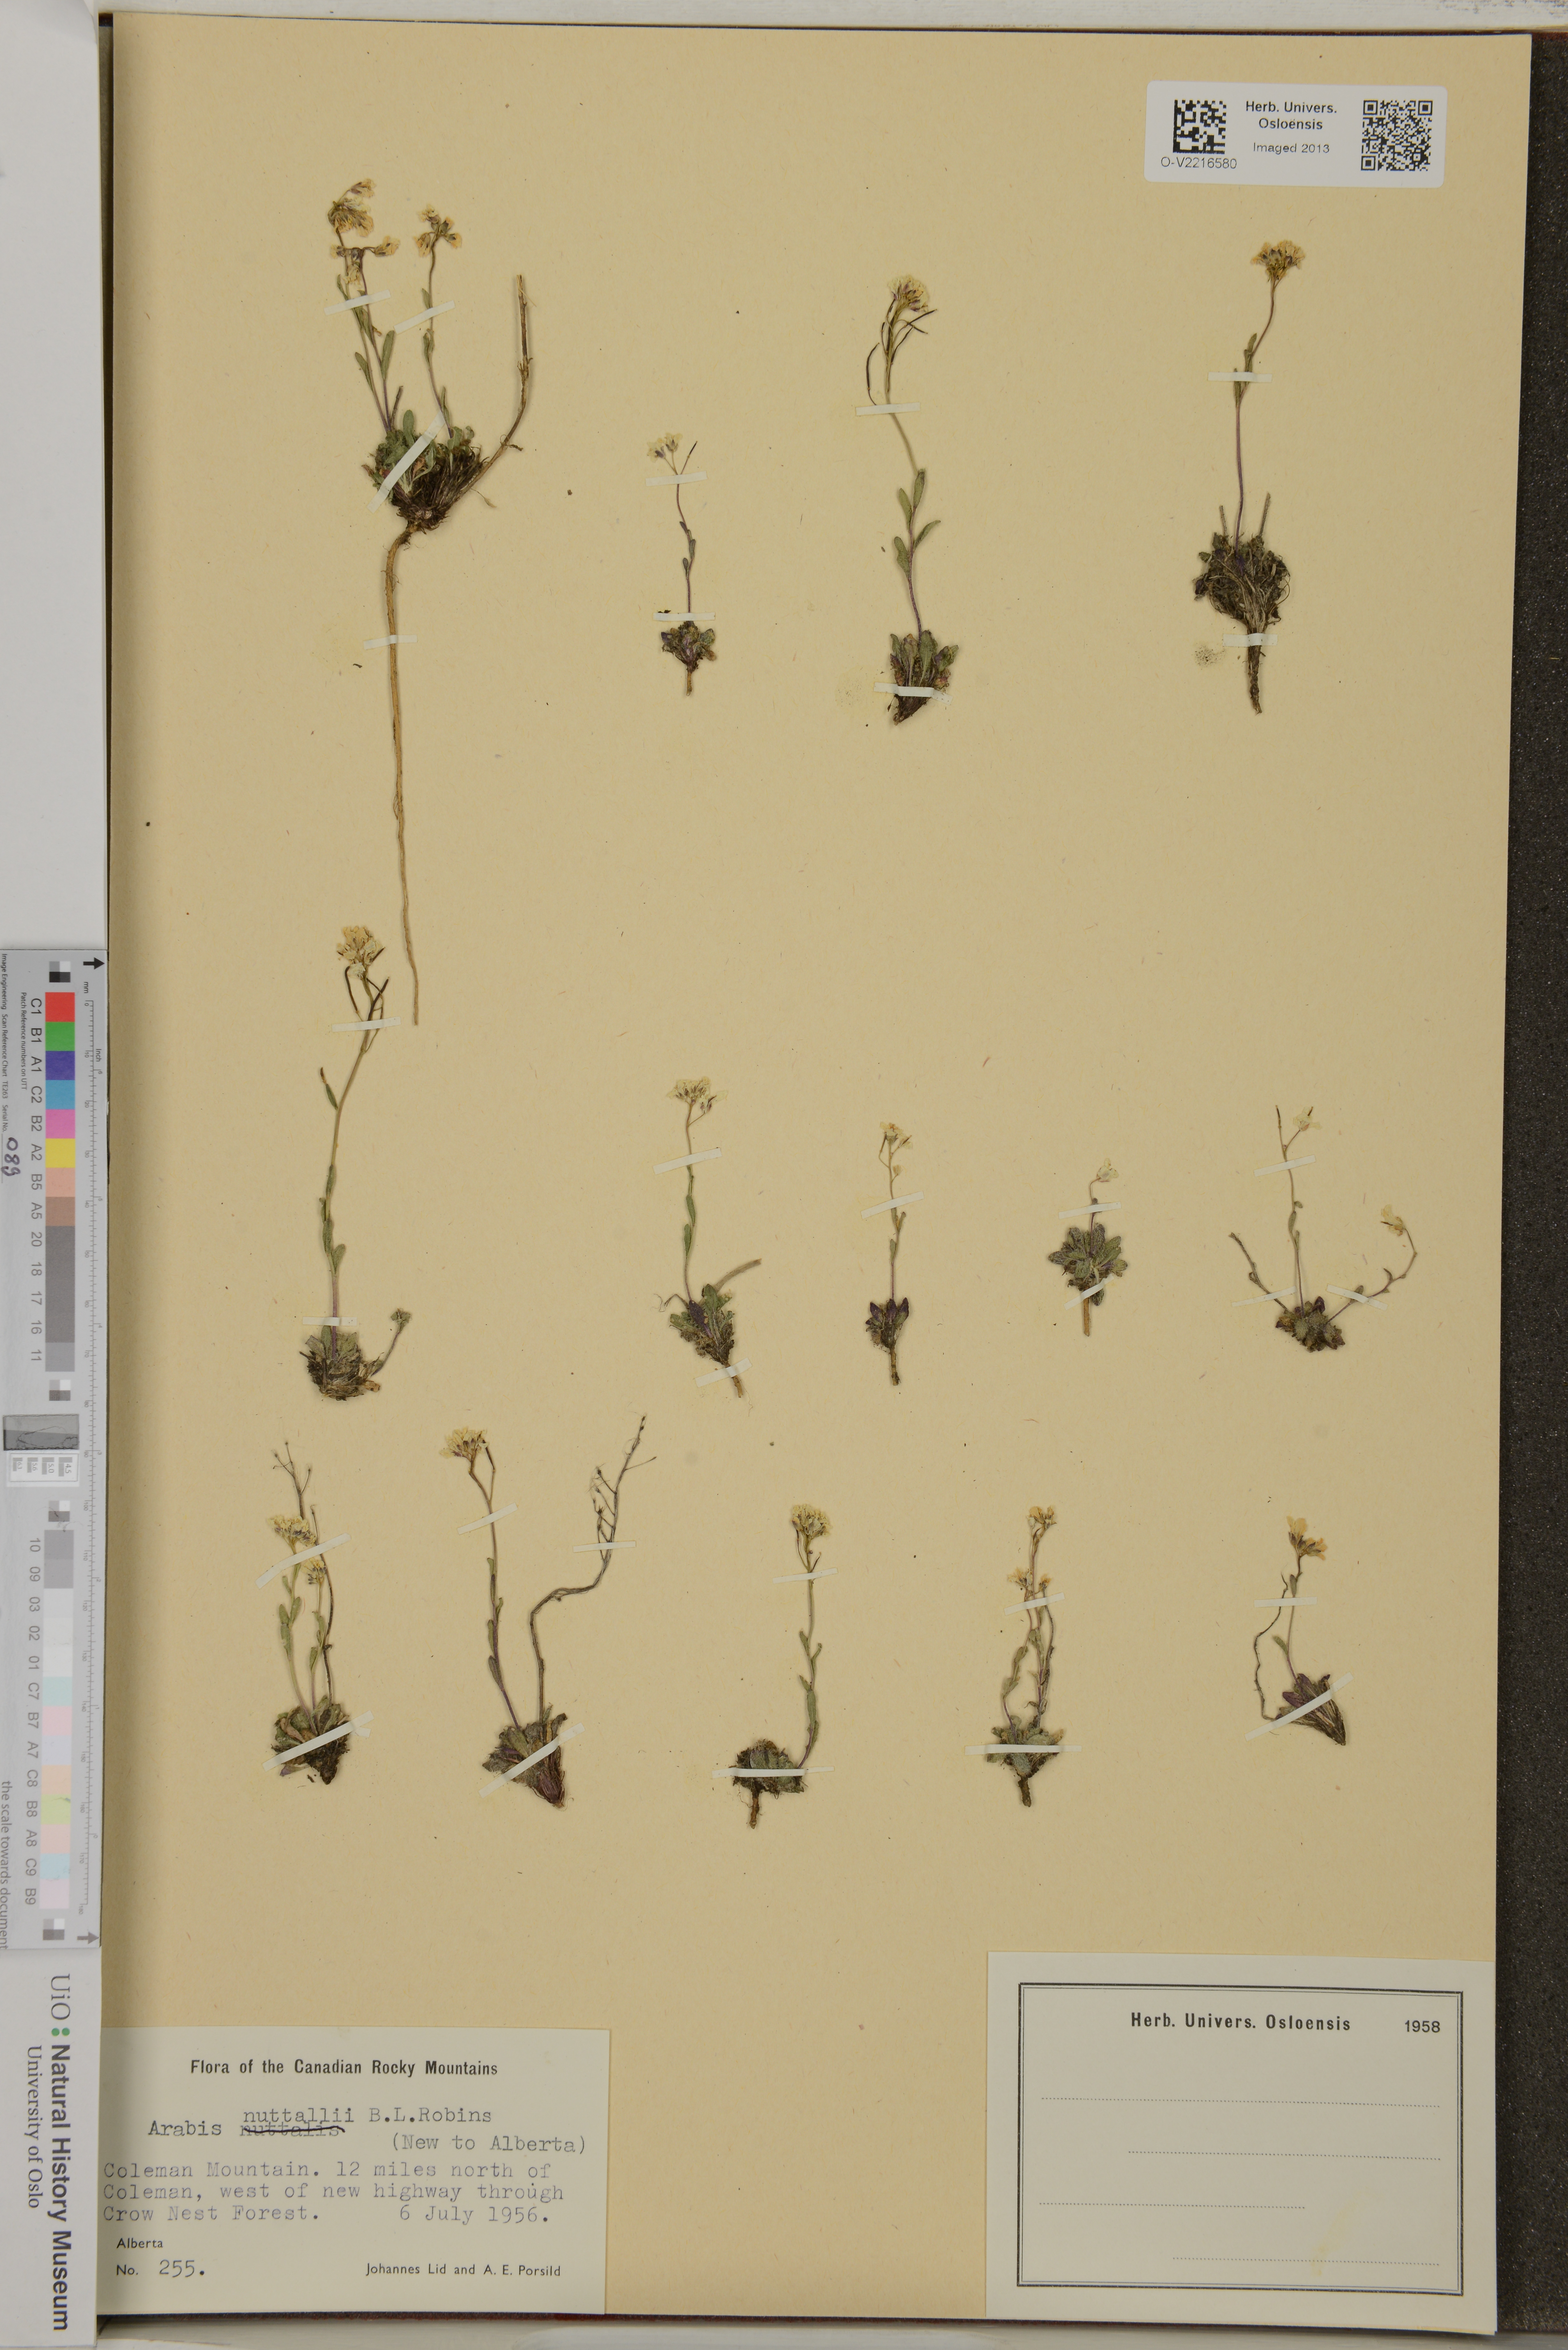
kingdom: Plantae
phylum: Tracheophyta
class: Magnoliopsida
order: Brassicales
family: Brassicaceae
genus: Arabis
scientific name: Arabis nuttallii
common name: Nuttall's rockcress
